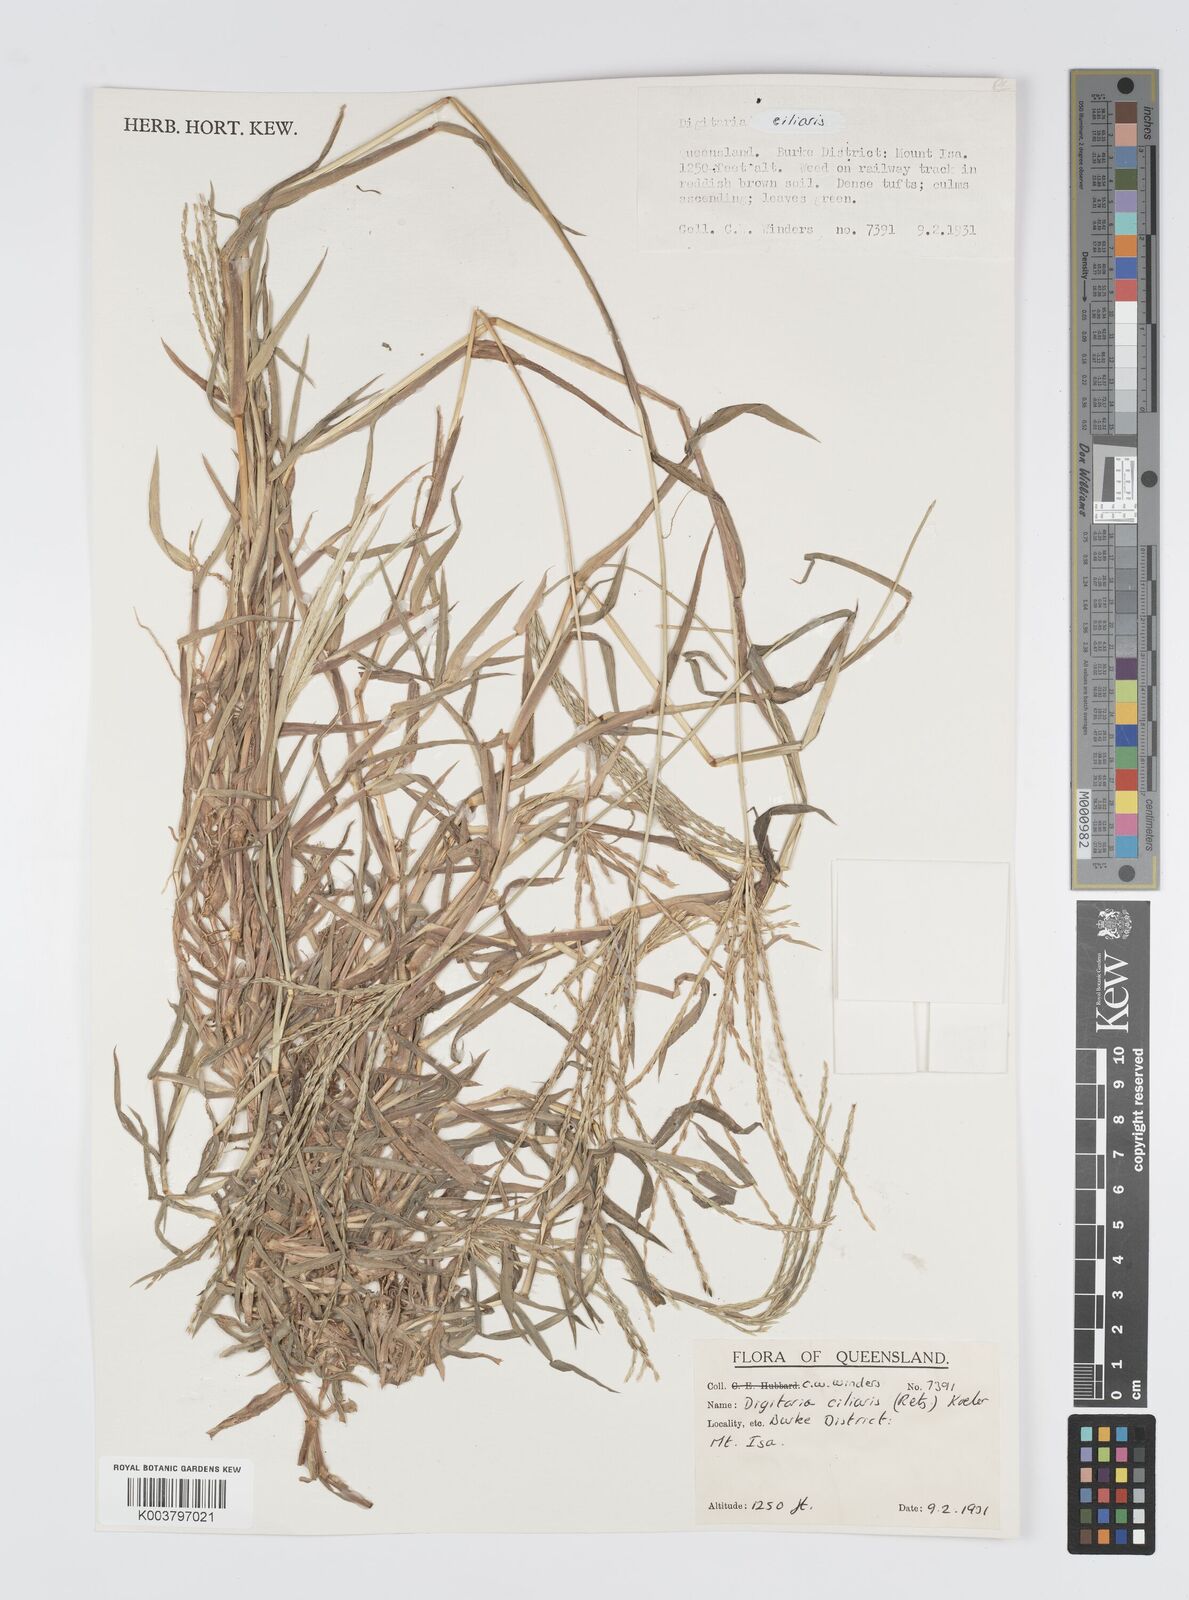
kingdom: Plantae
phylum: Tracheophyta
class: Liliopsida
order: Poales
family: Poaceae
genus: Digitaria
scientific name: Digitaria ciliaris
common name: Tropical finger-grass
